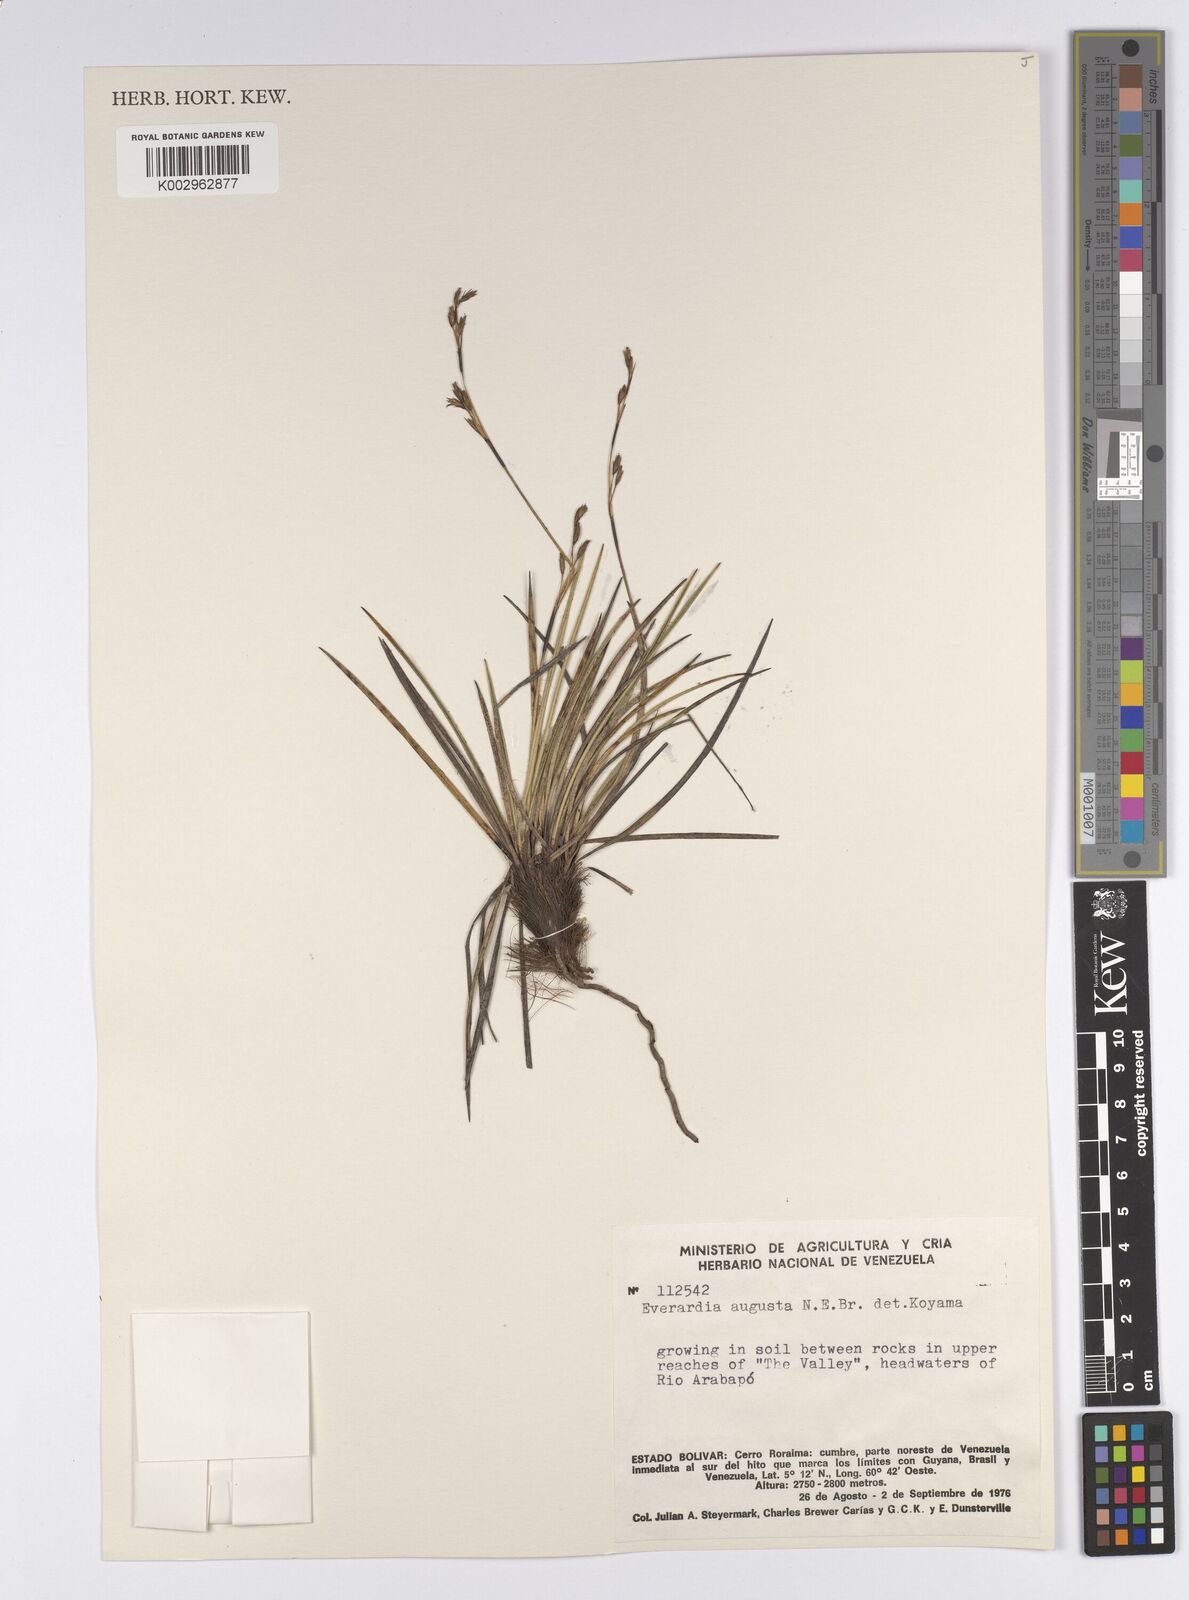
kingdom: Plantae
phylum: Tracheophyta
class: Liliopsida
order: Poales
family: Cyperaceae
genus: Cephalocarpus
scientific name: Cephalocarpus angustus
